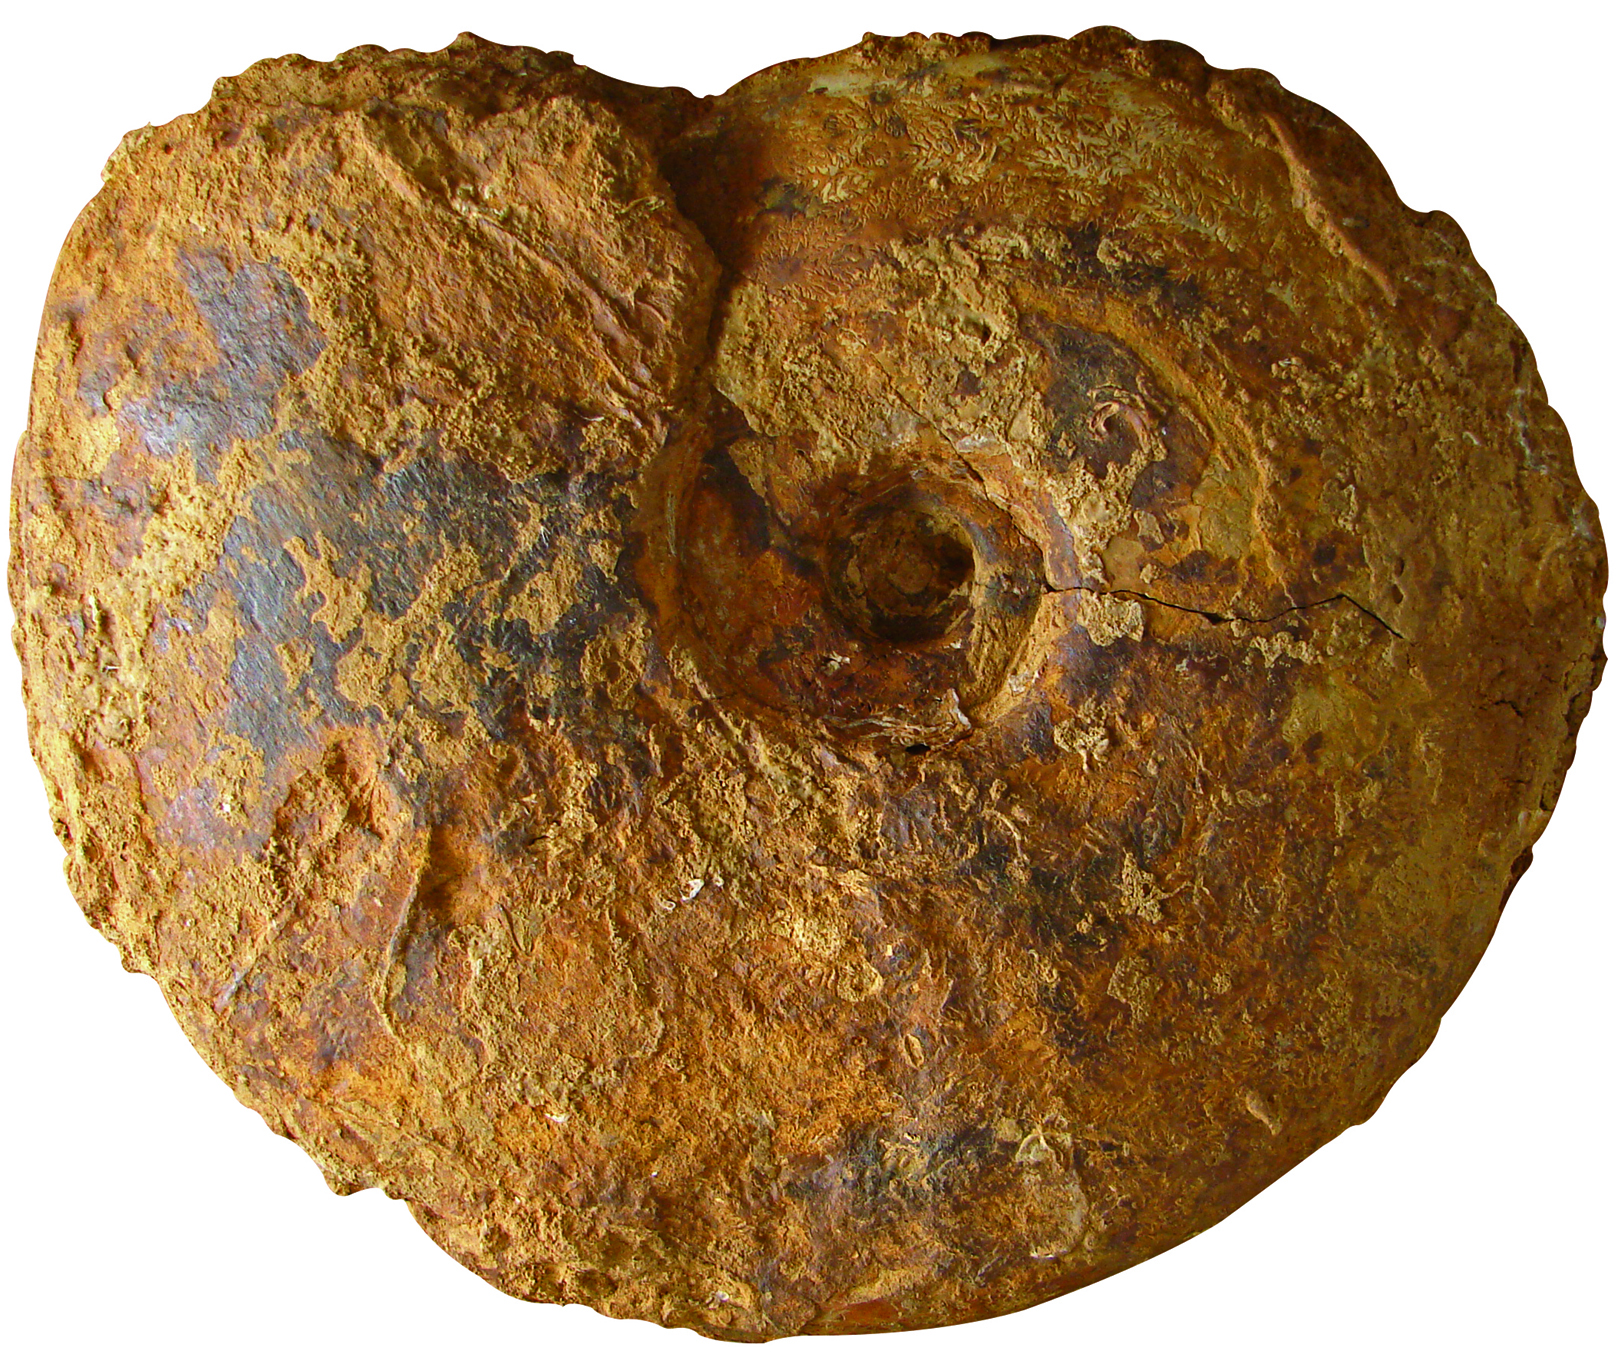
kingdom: Animalia
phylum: Mollusca
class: Cephalopoda
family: Sonniniidae
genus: Shirbuirnia
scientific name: Shirbuirnia
